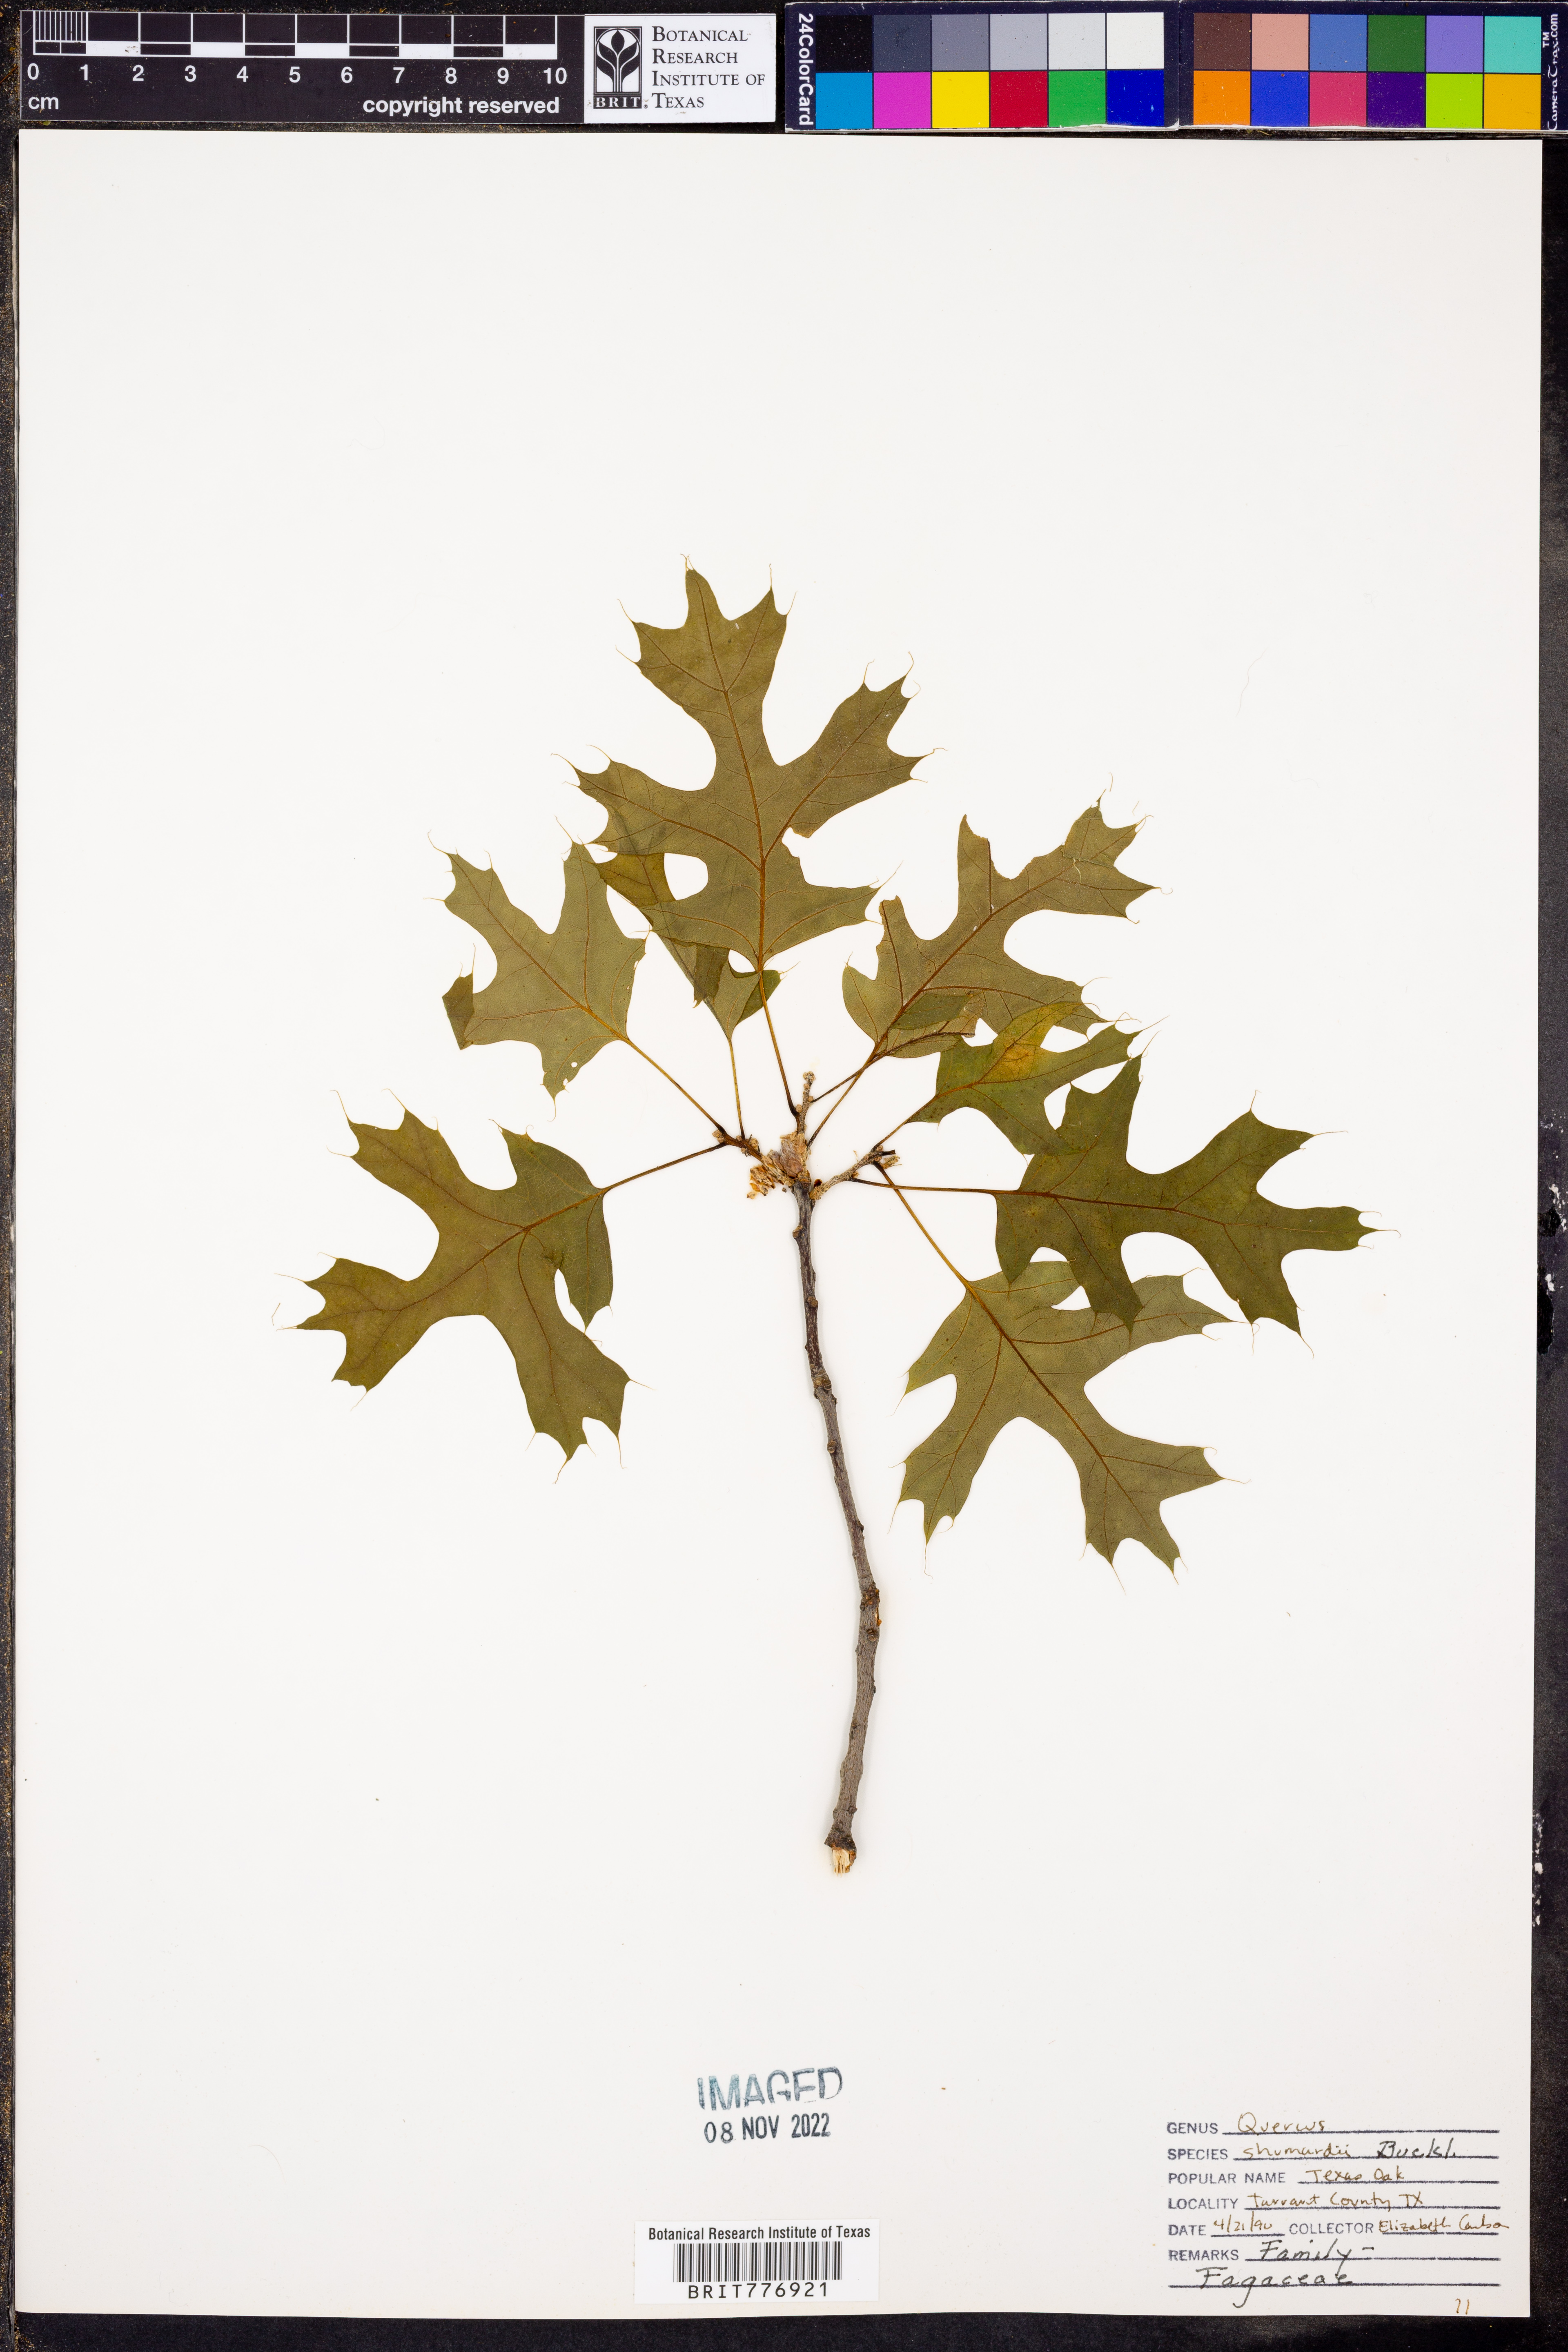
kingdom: Plantae
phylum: Tracheophyta
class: Magnoliopsida
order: Fagales
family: Fagaceae
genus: Quercus
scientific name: Quercus shumardii
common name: Shumard oak
